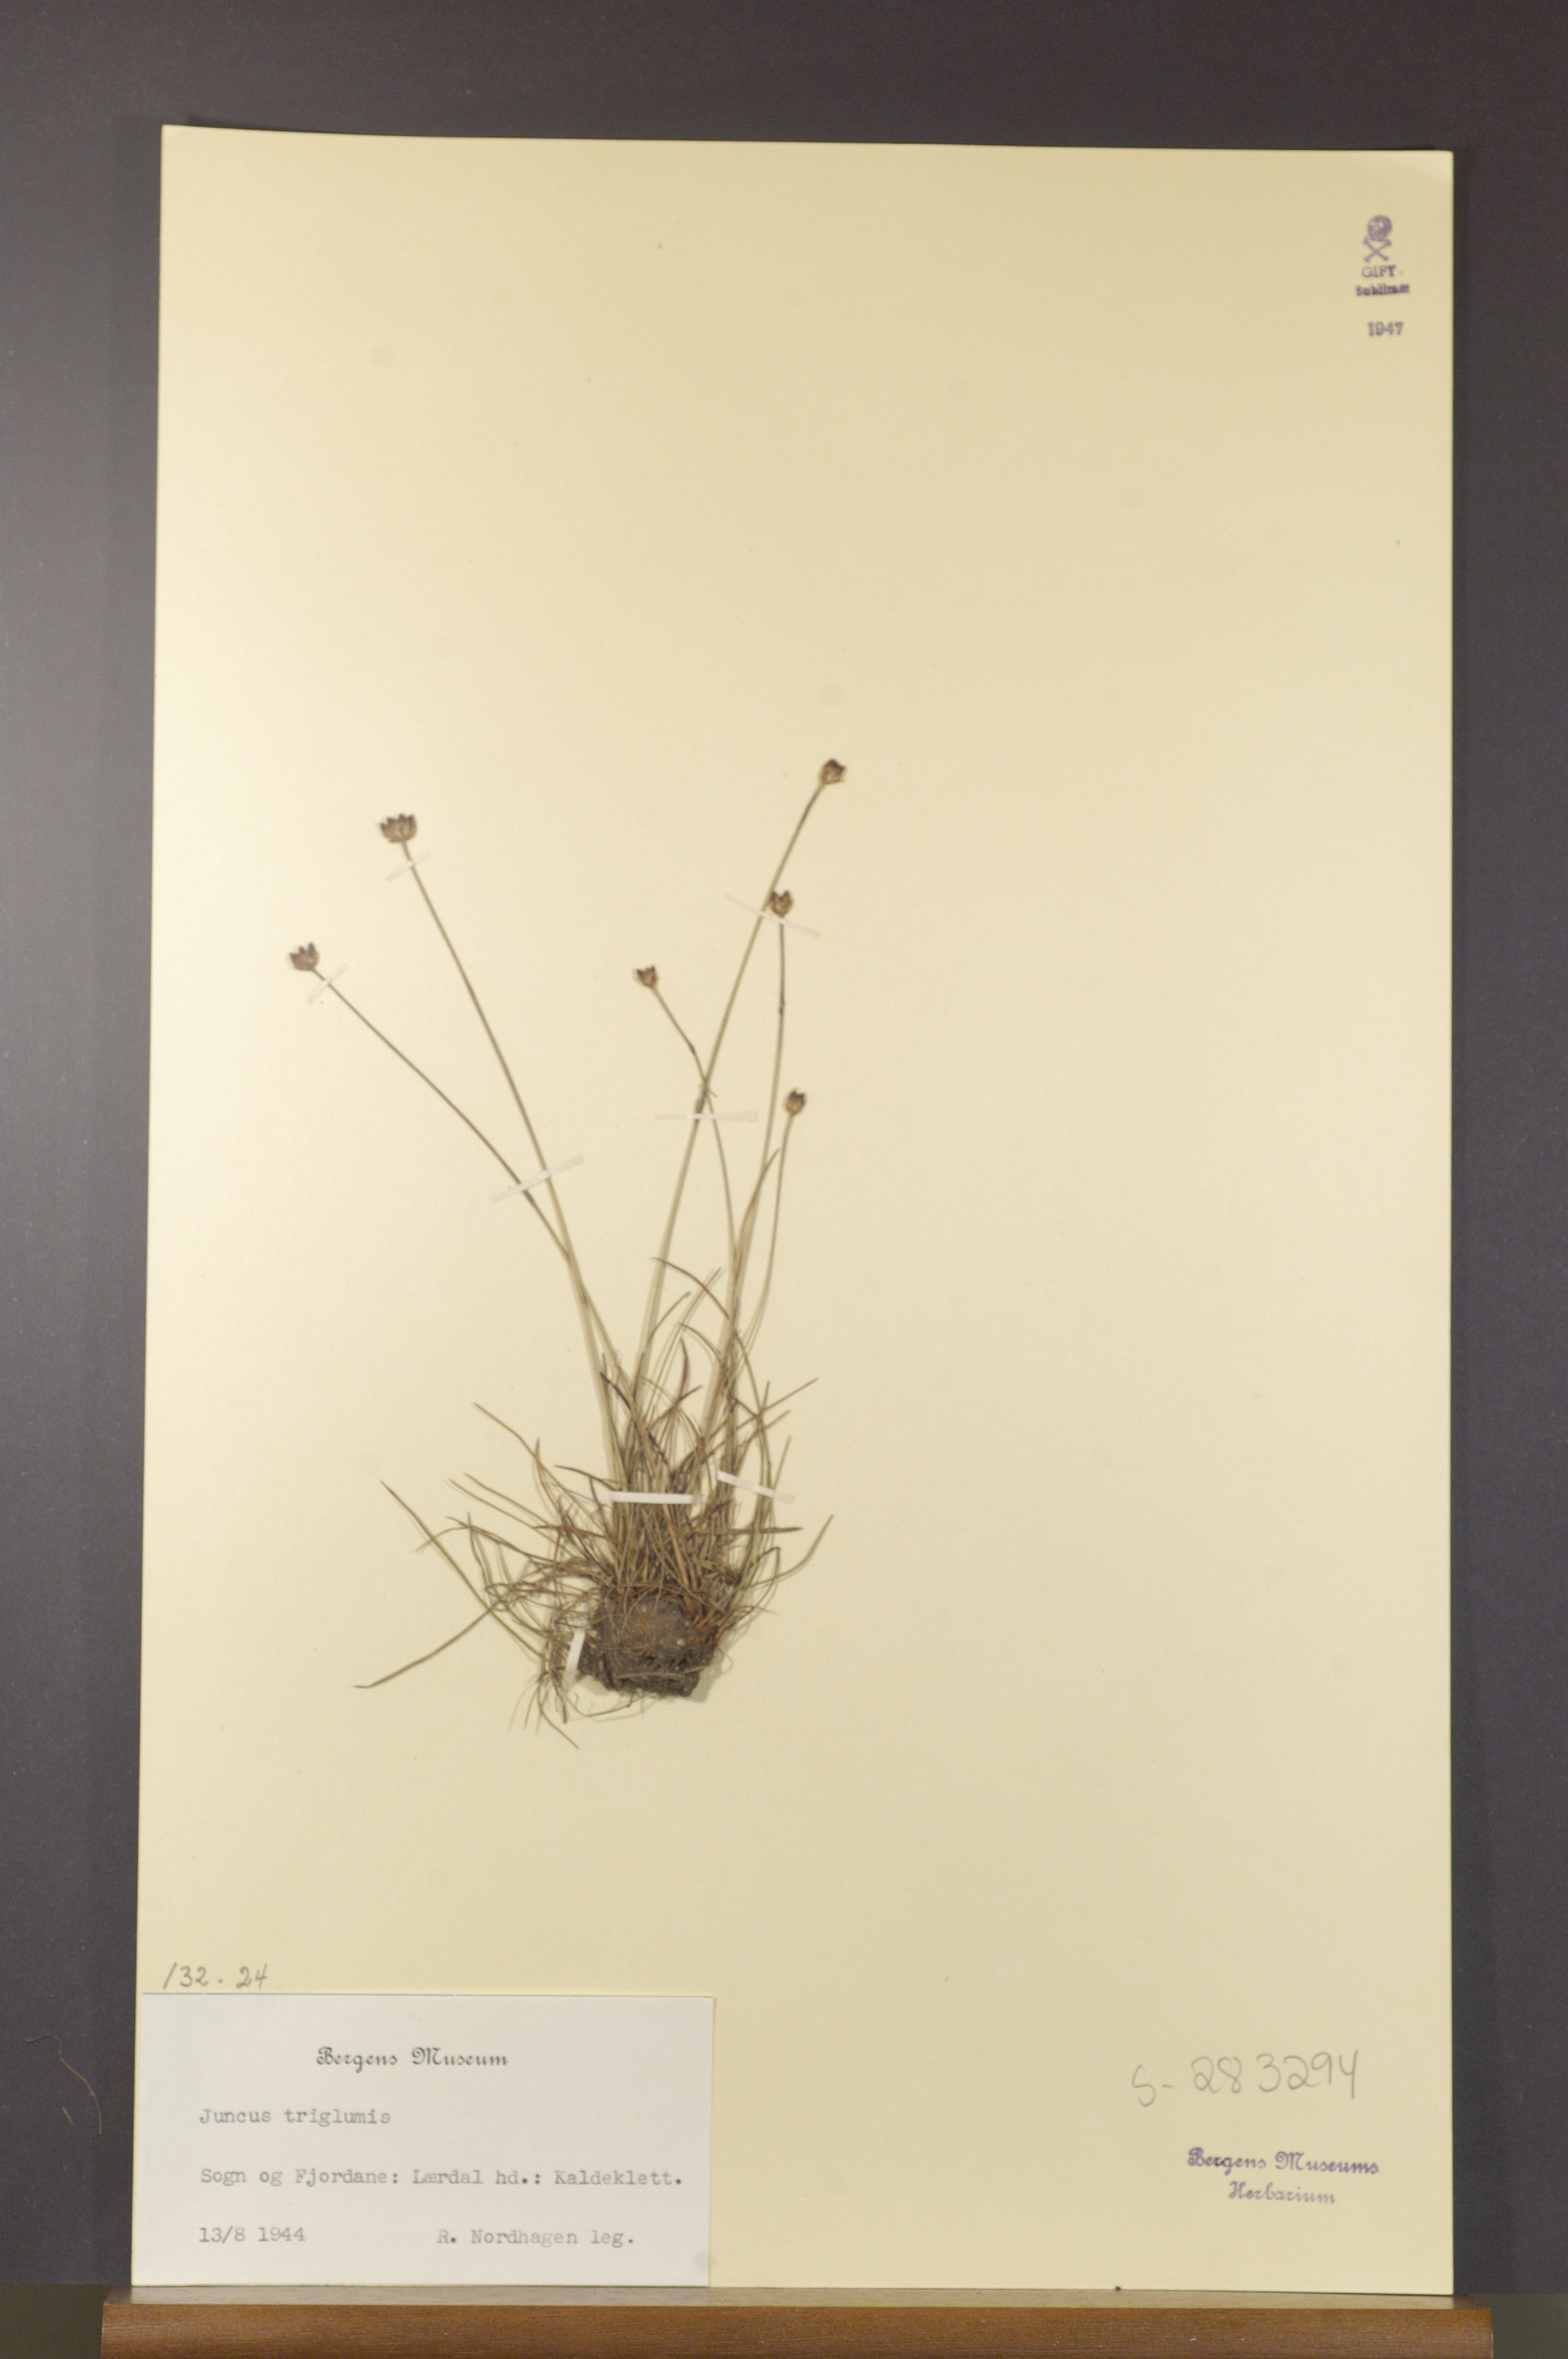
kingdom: Plantae
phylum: Tracheophyta
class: Liliopsida
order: Poales
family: Juncaceae
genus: Juncus
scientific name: Juncus triglumis
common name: Three-flowered rush
